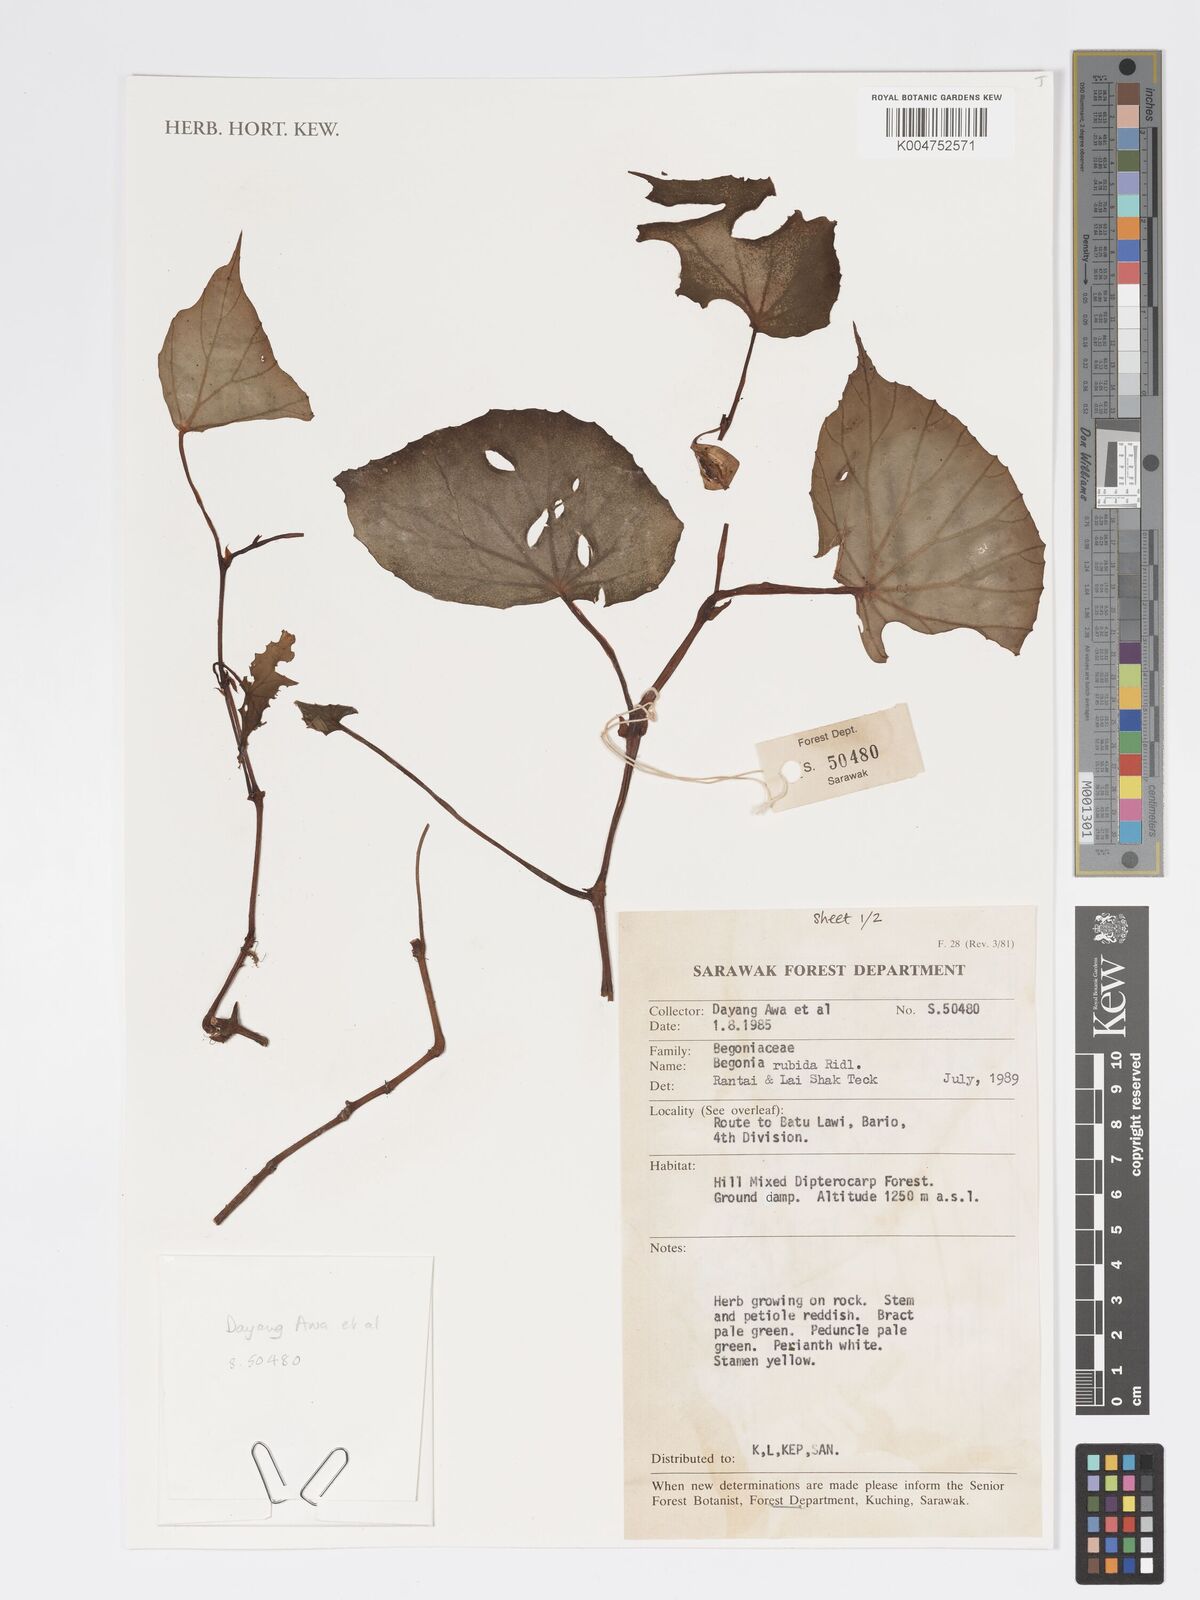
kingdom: Plantae
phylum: Tracheophyta
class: Magnoliopsida
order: Cucurbitales
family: Begoniaceae
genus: Begonia
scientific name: Begonia rubida
